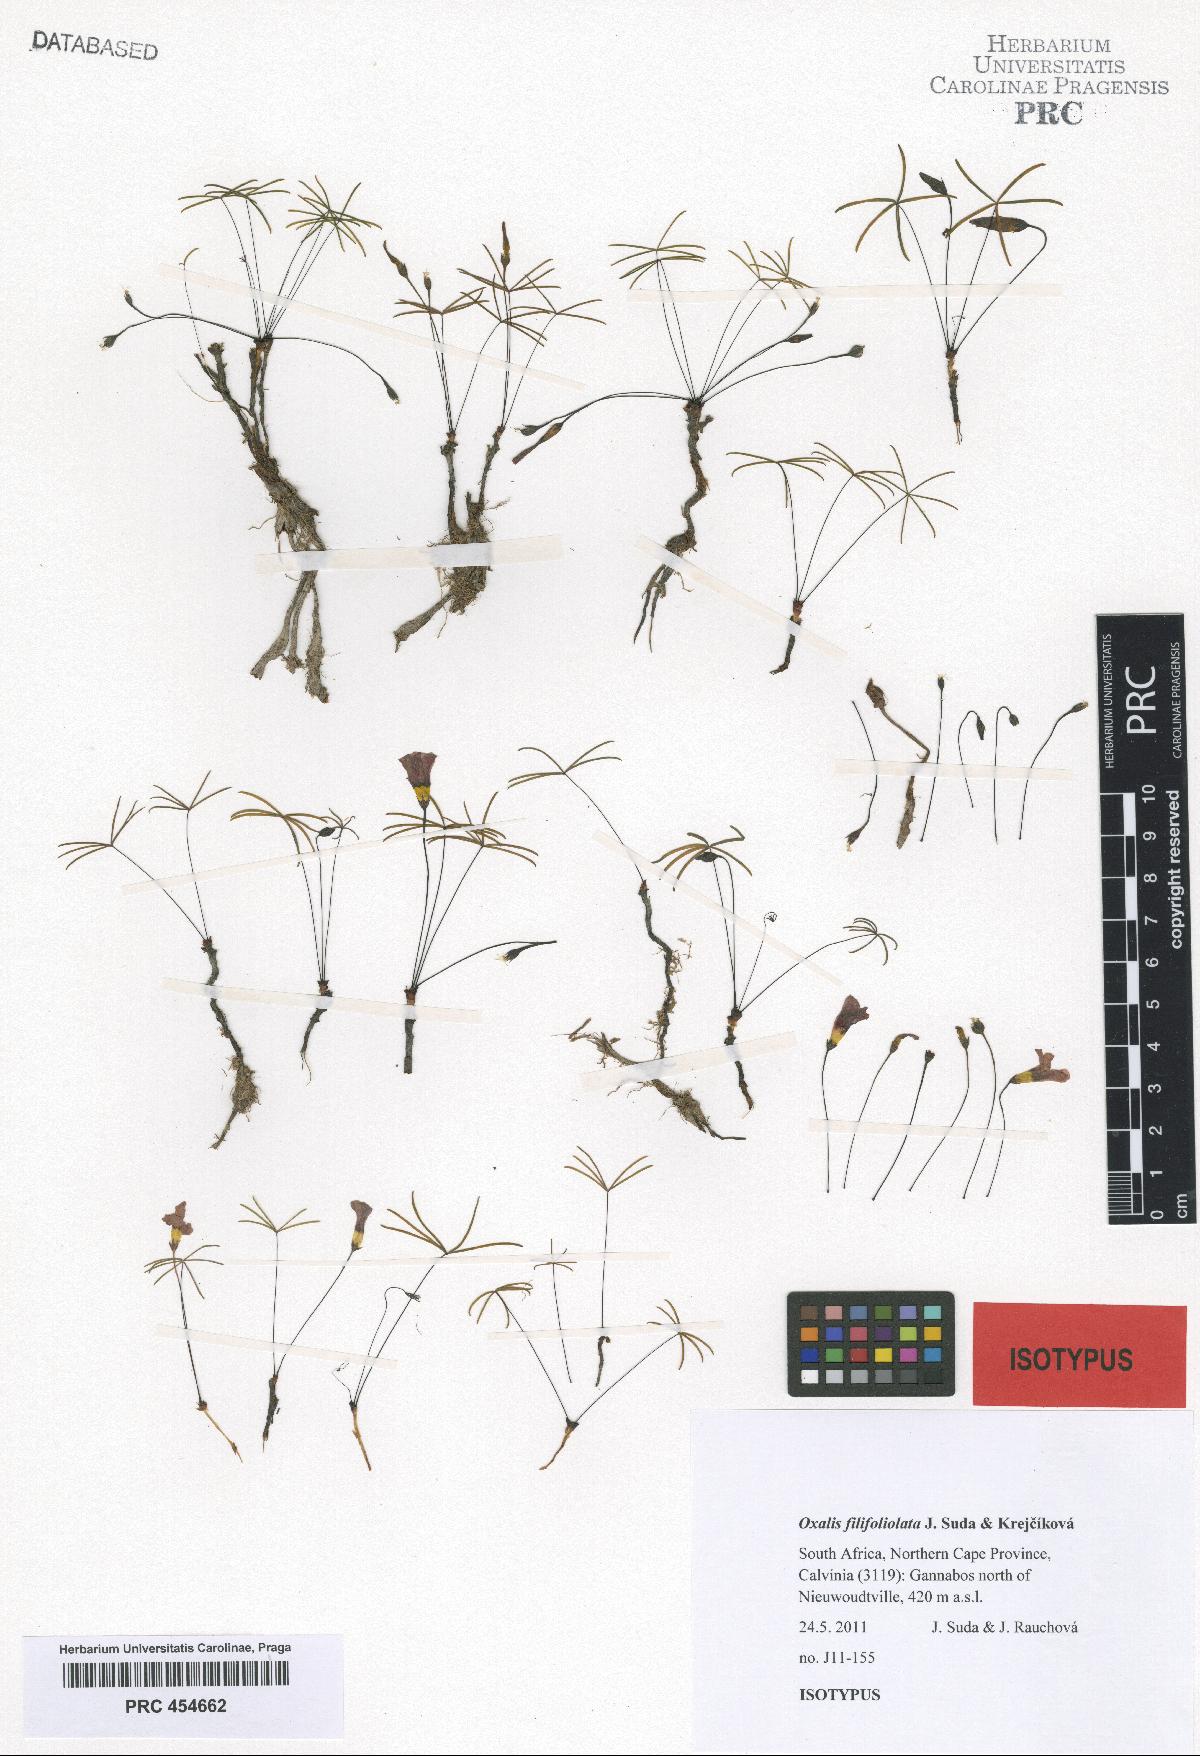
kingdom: Plantae
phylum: Tracheophyta
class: Magnoliopsida
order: Oxalidales
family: Oxalidaceae
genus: Oxalis
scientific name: Oxalis filifoliolata
